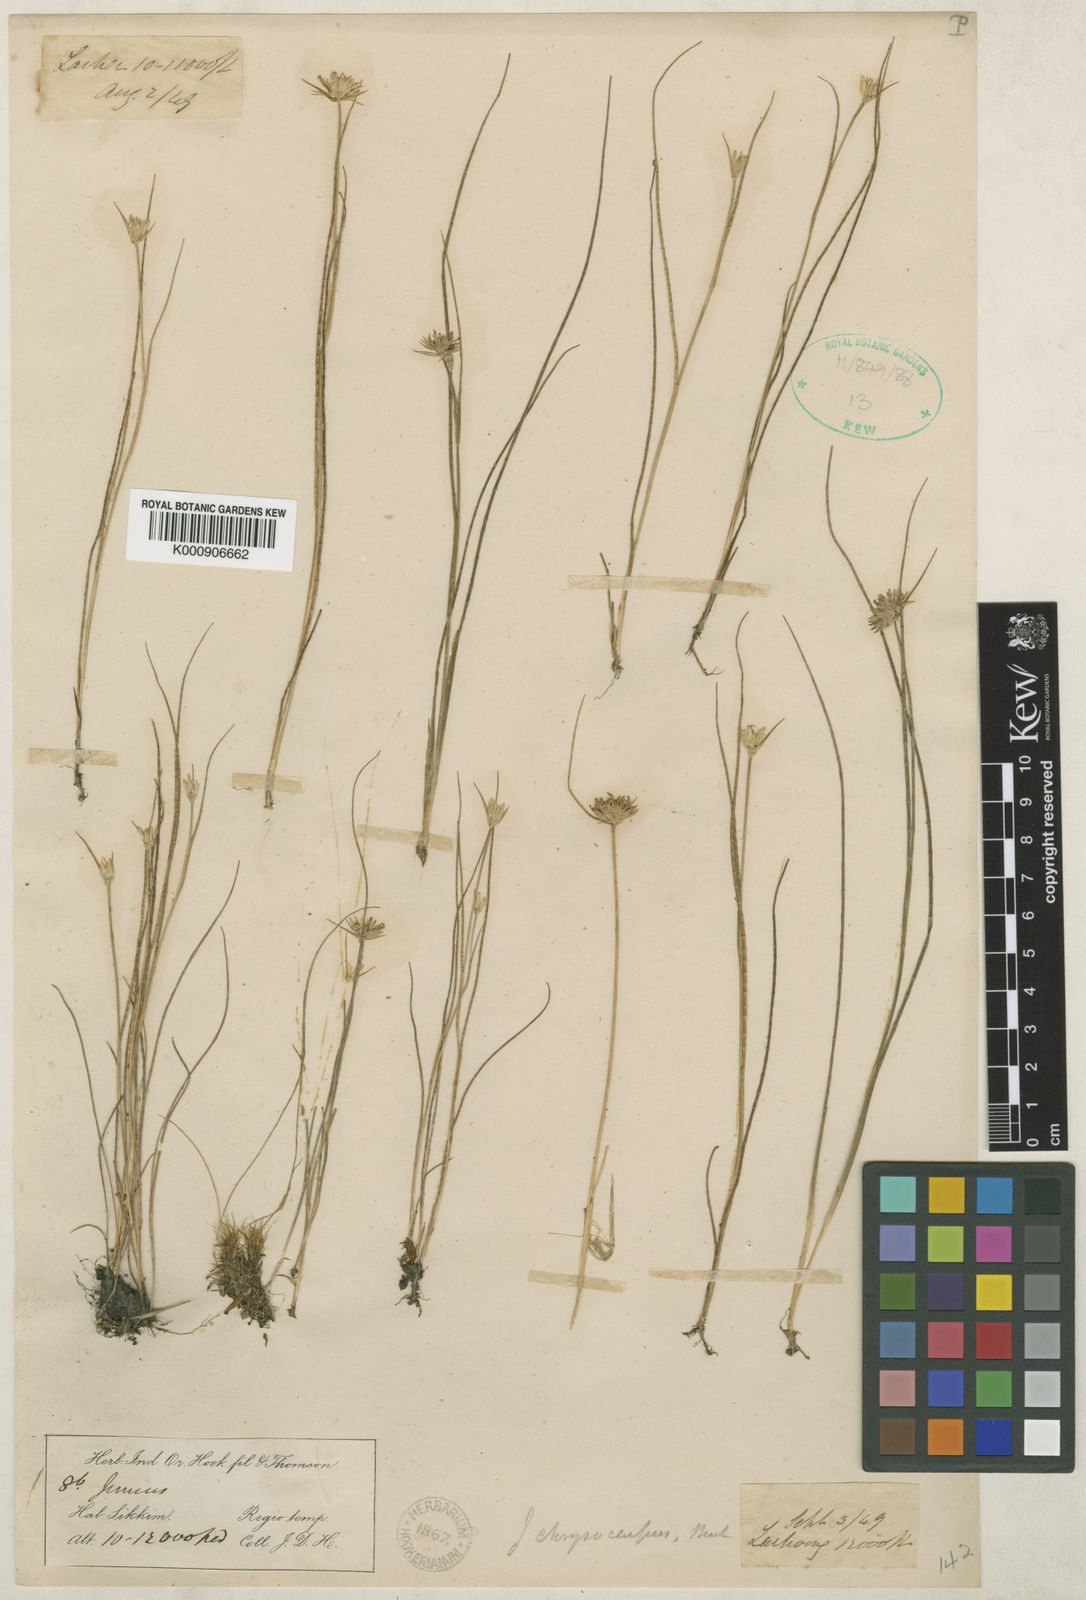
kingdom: Plantae
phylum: Tracheophyta
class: Liliopsida
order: Poales
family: Juncaceae
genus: Juncus
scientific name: Juncus chrysocarpus
